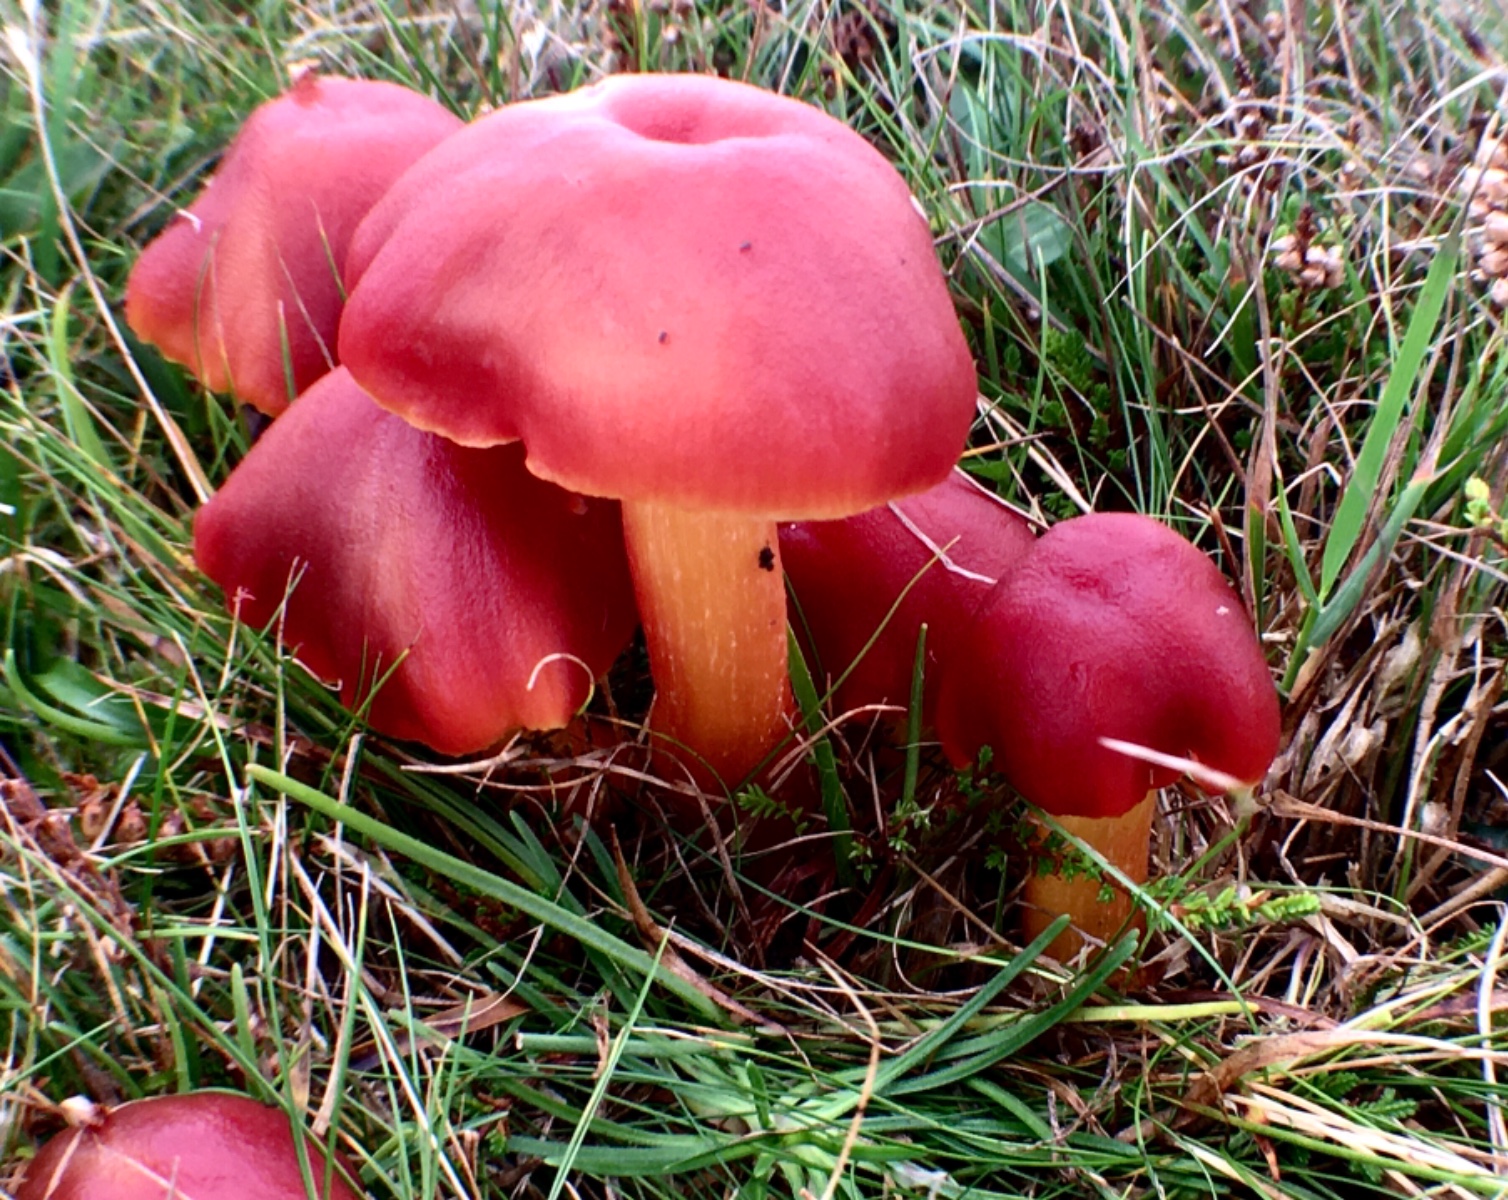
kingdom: Fungi
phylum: Basidiomycota
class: Agaricomycetes
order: Agaricales
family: Hygrophoraceae
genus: Hygrocybe
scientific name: Hygrocybe punicea
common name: skarlagen-vokshat
